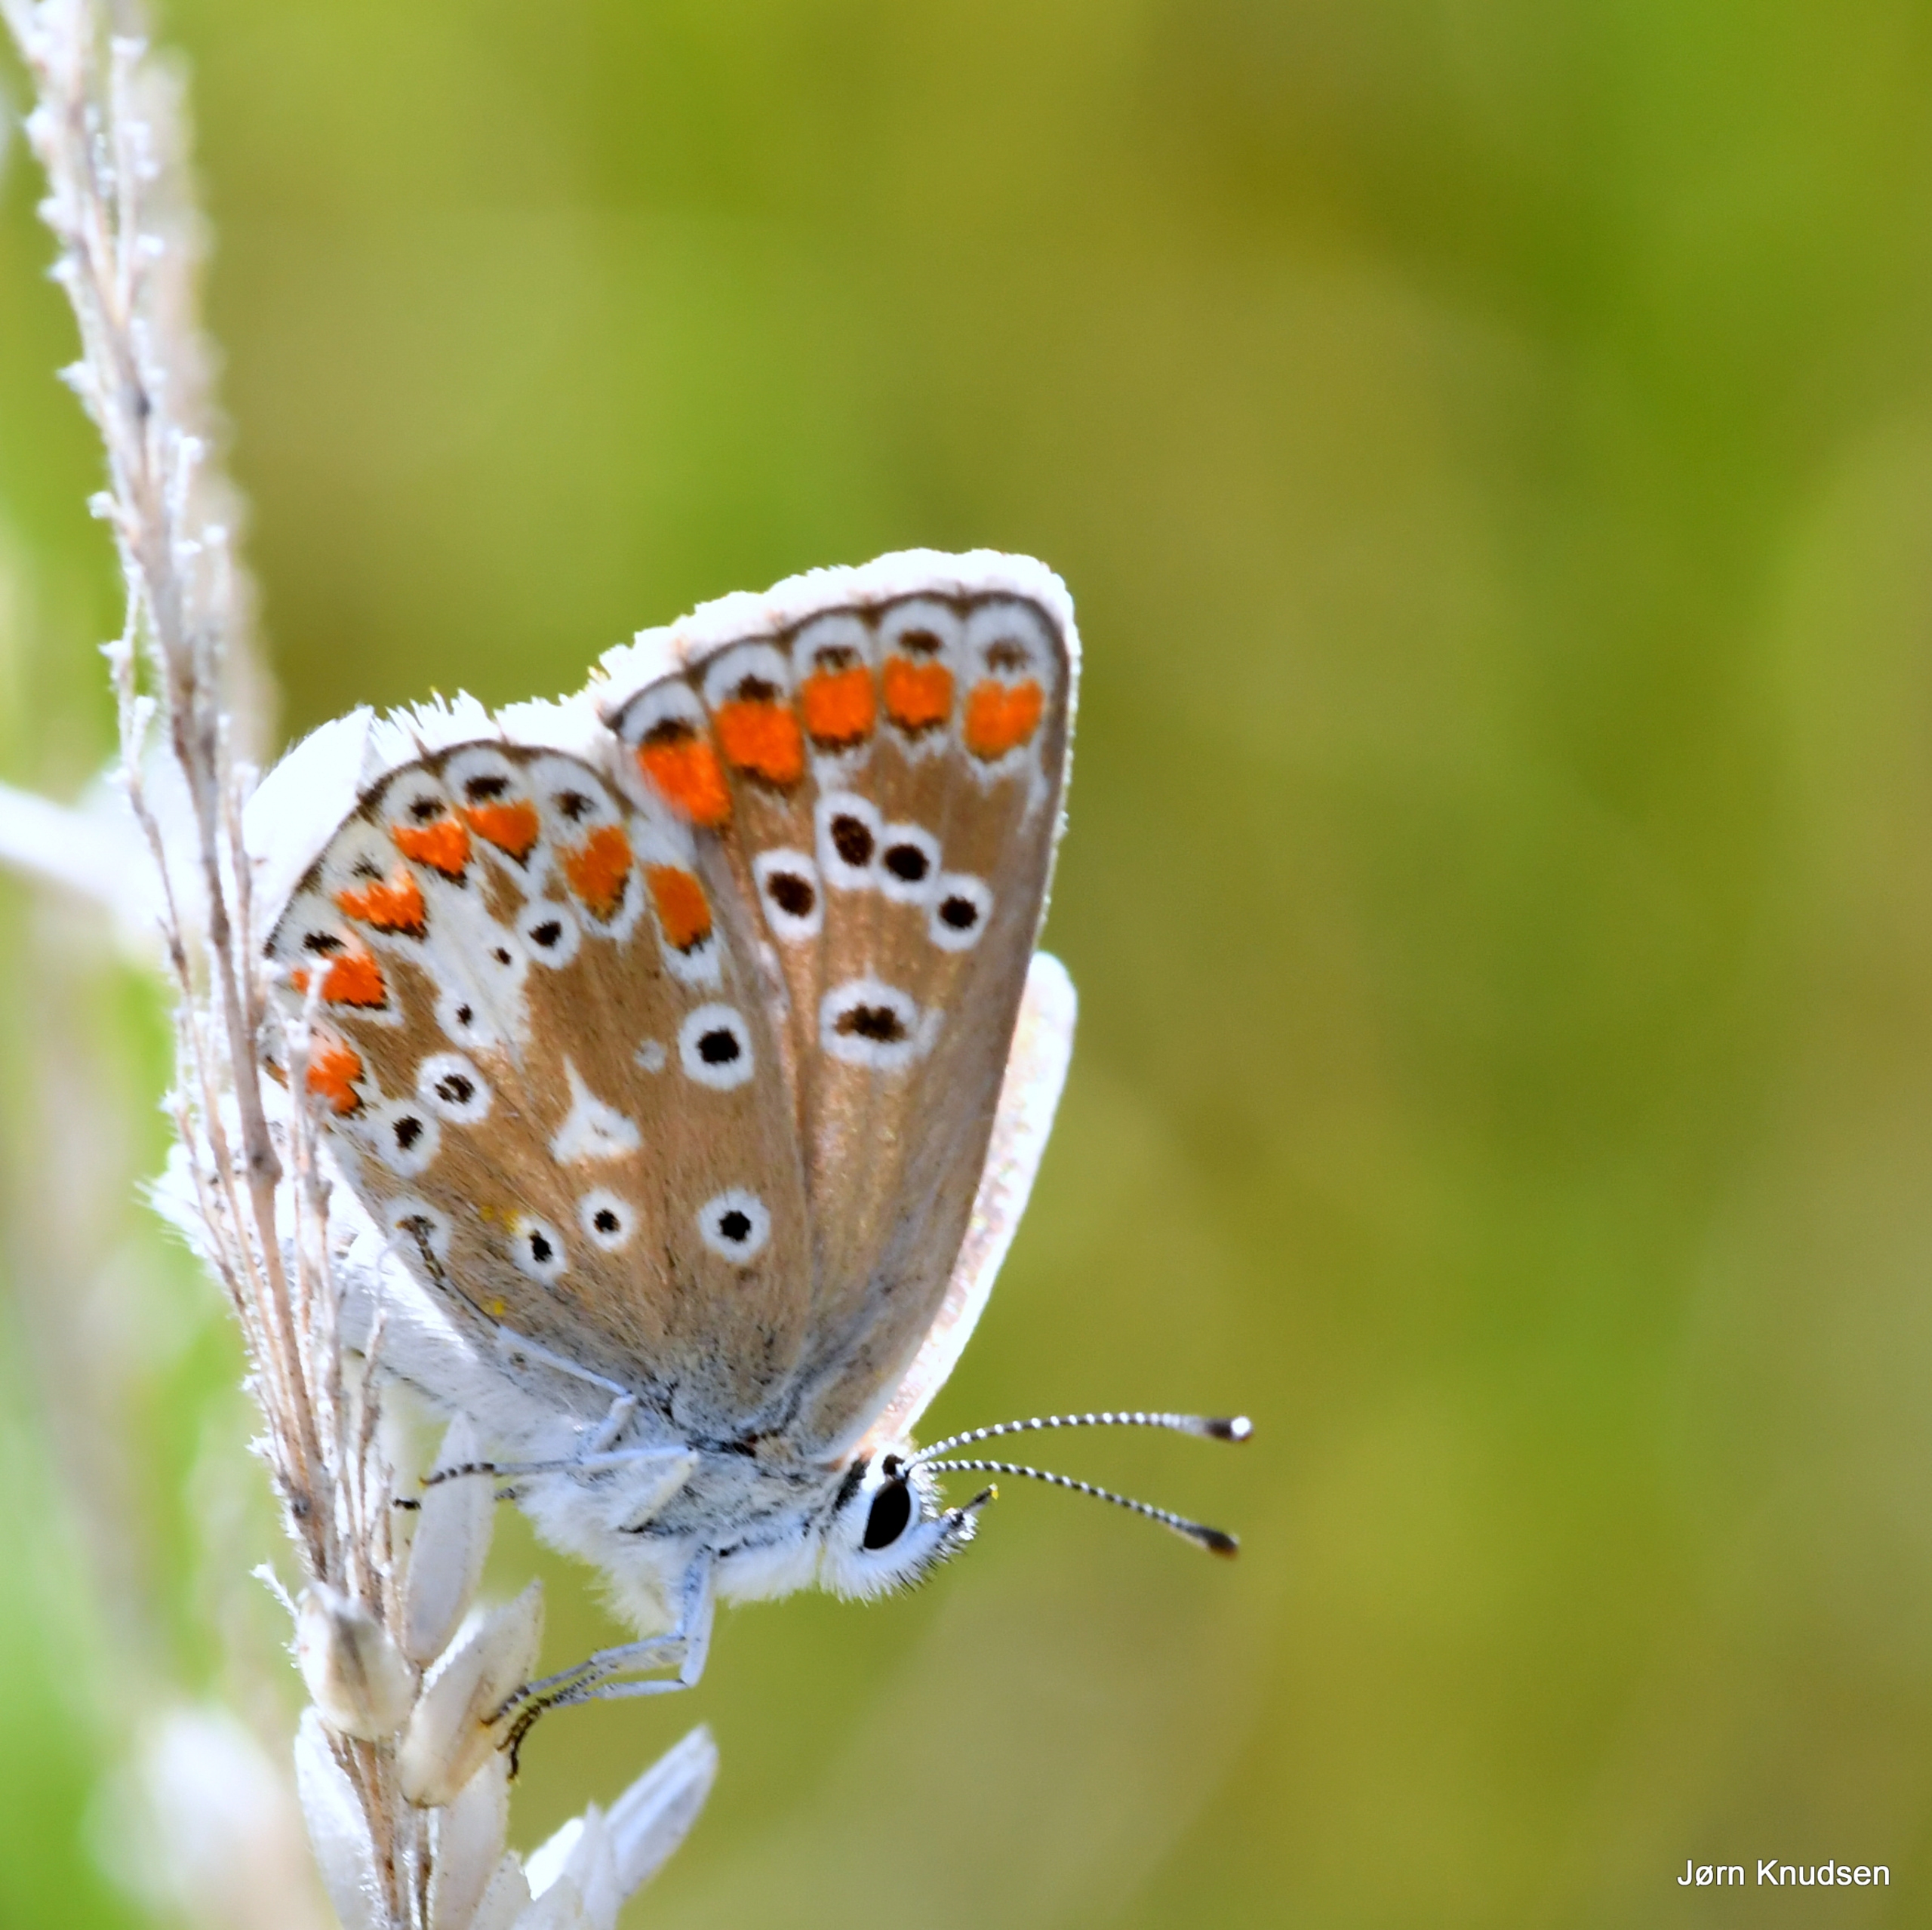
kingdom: Animalia
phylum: Arthropoda
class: Insecta
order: Lepidoptera
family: Lycaenidae
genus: Polyommatus
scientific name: Polyommatus icarus
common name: Almindelig blåfugl
